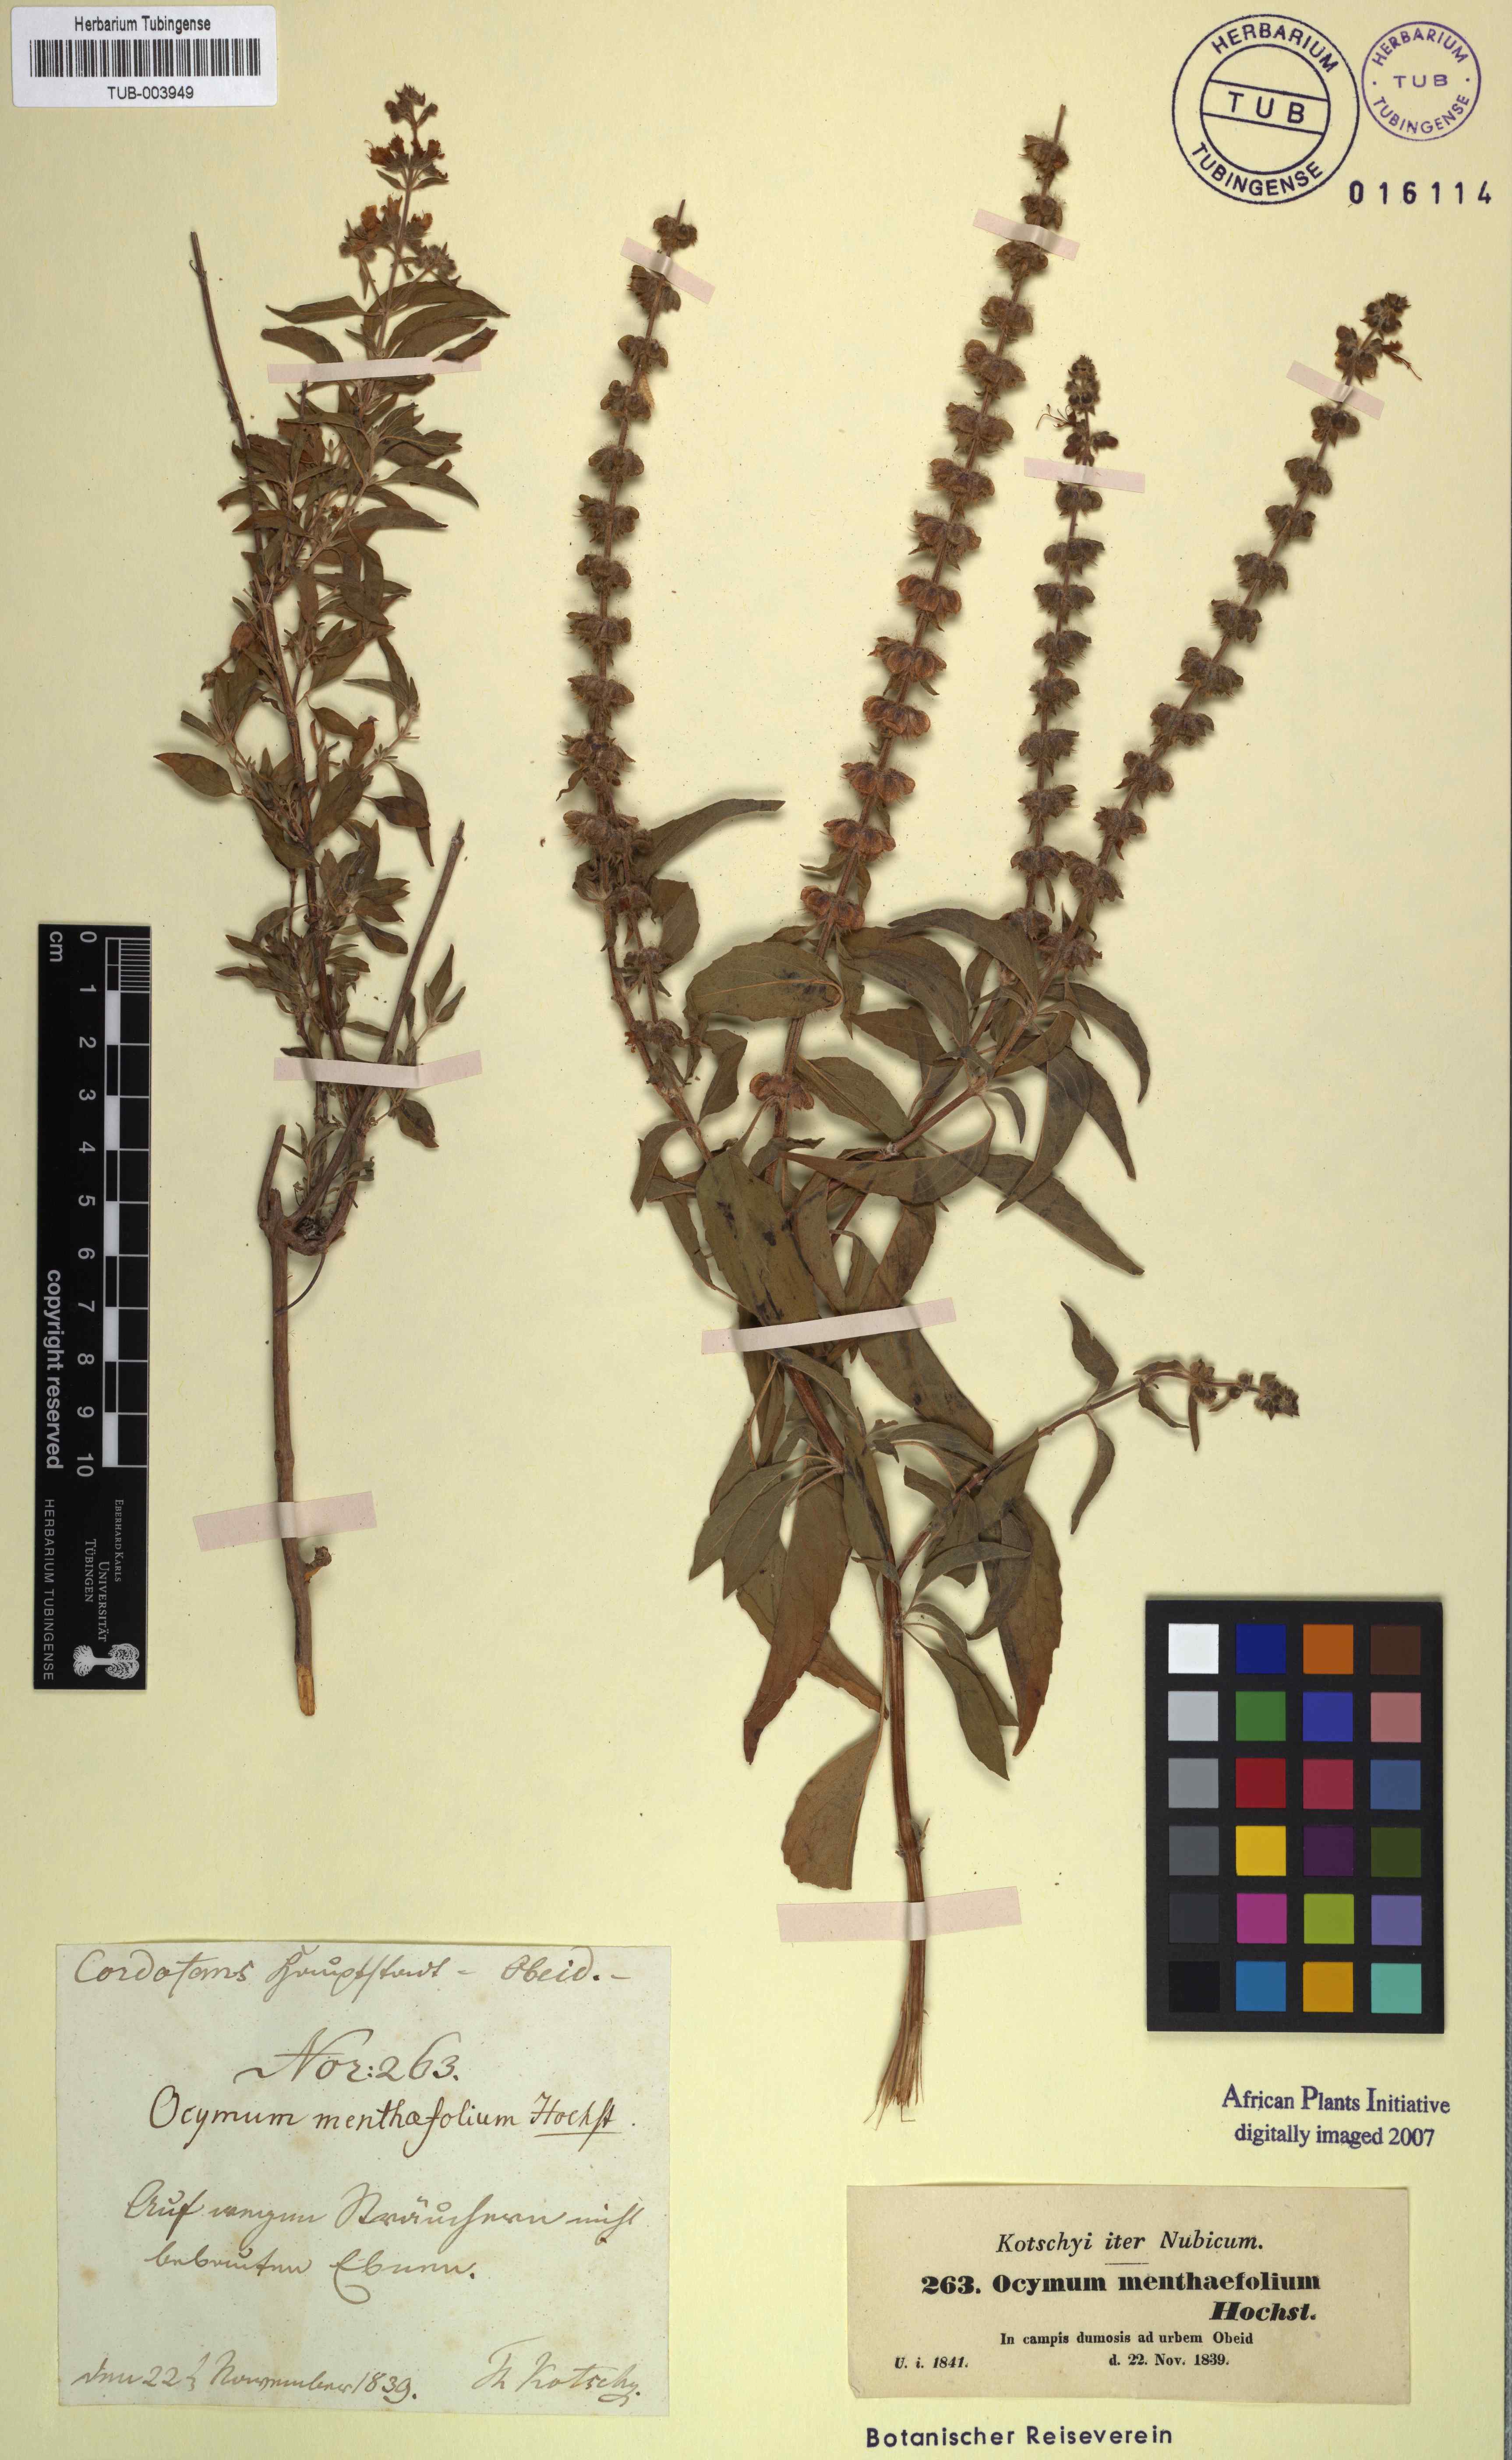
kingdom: Plantae
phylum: Tracheophyta
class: Magnoliopsida
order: Lamiales
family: Lamiaceae
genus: Ocimum
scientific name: Ocimum forskoelei
